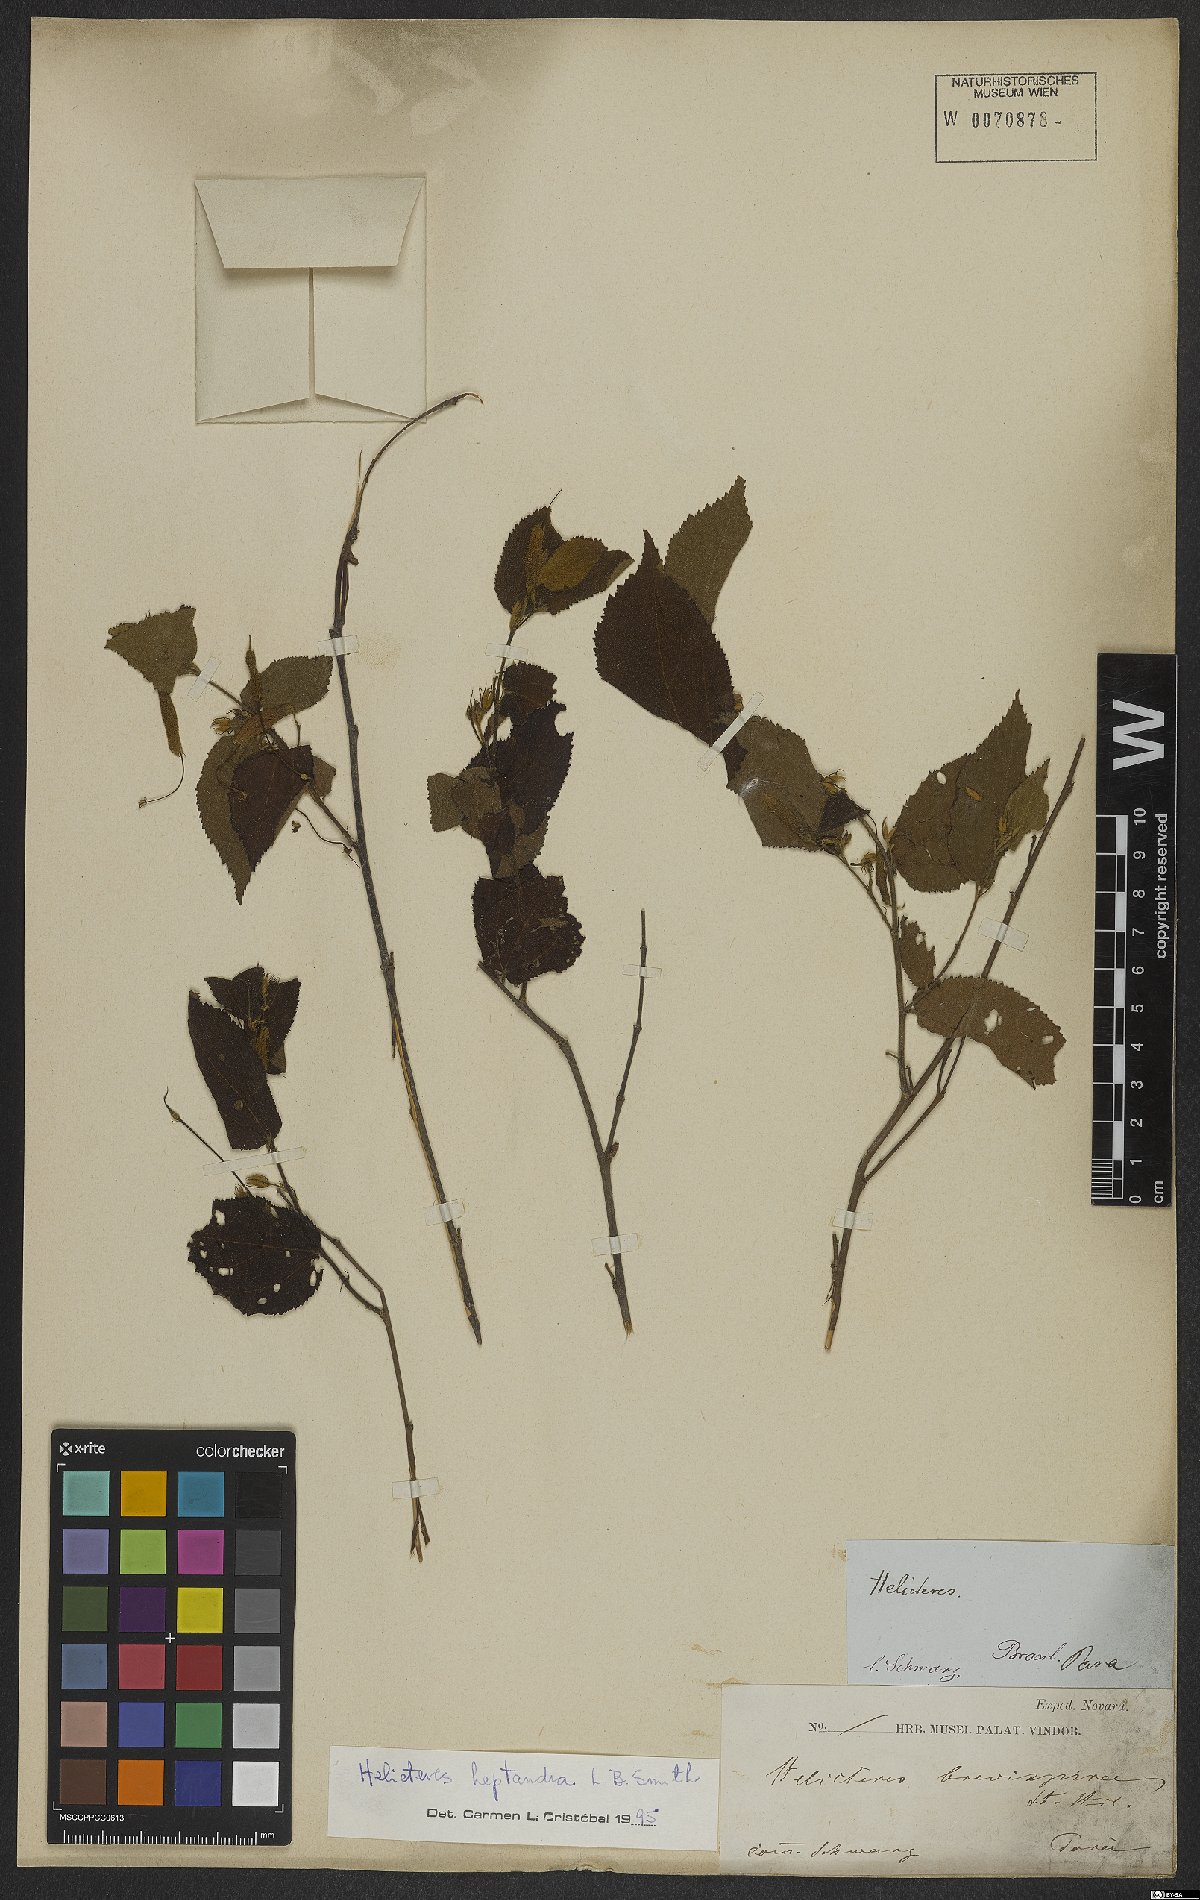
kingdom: Plantae
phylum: Tracheophyta
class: Magnoliopsida
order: Malvales
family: Malvaceae
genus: Helicteres
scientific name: Helicteres heptandra
